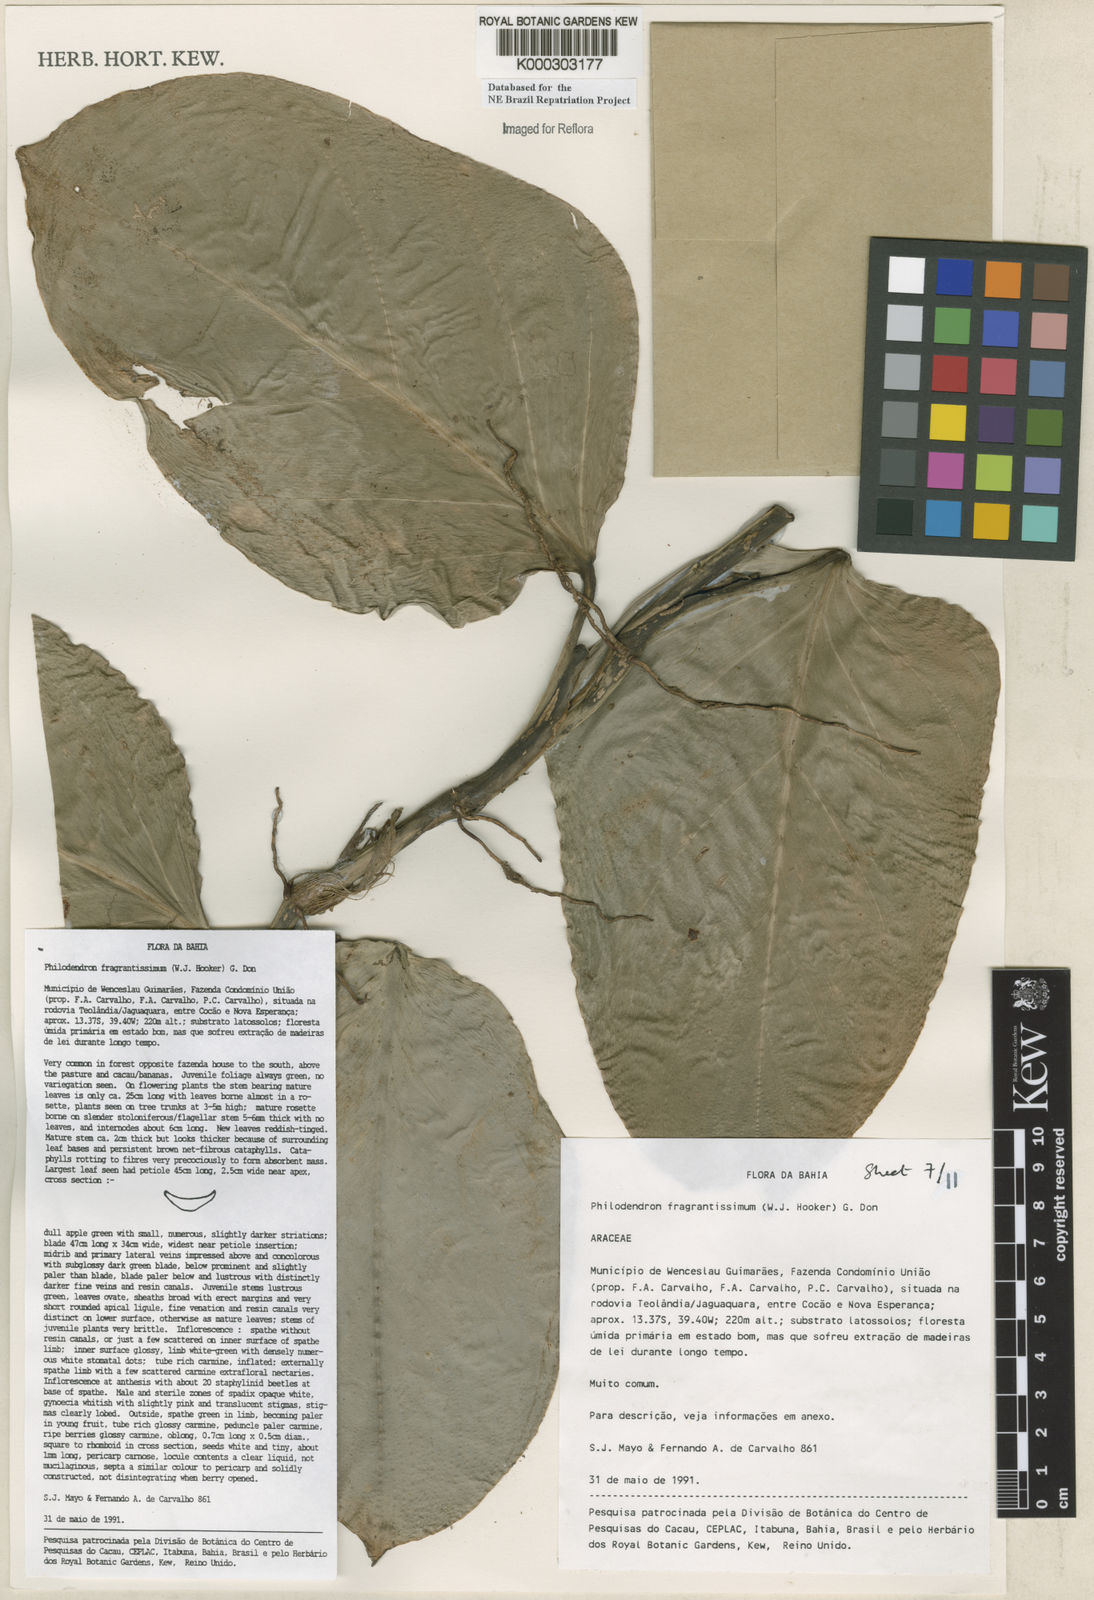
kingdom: Plantae
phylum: Tracheophyta
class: Liliopsida
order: Alismatales
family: Araceae
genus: Philodendron
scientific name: Philodendron fragrantissimum
